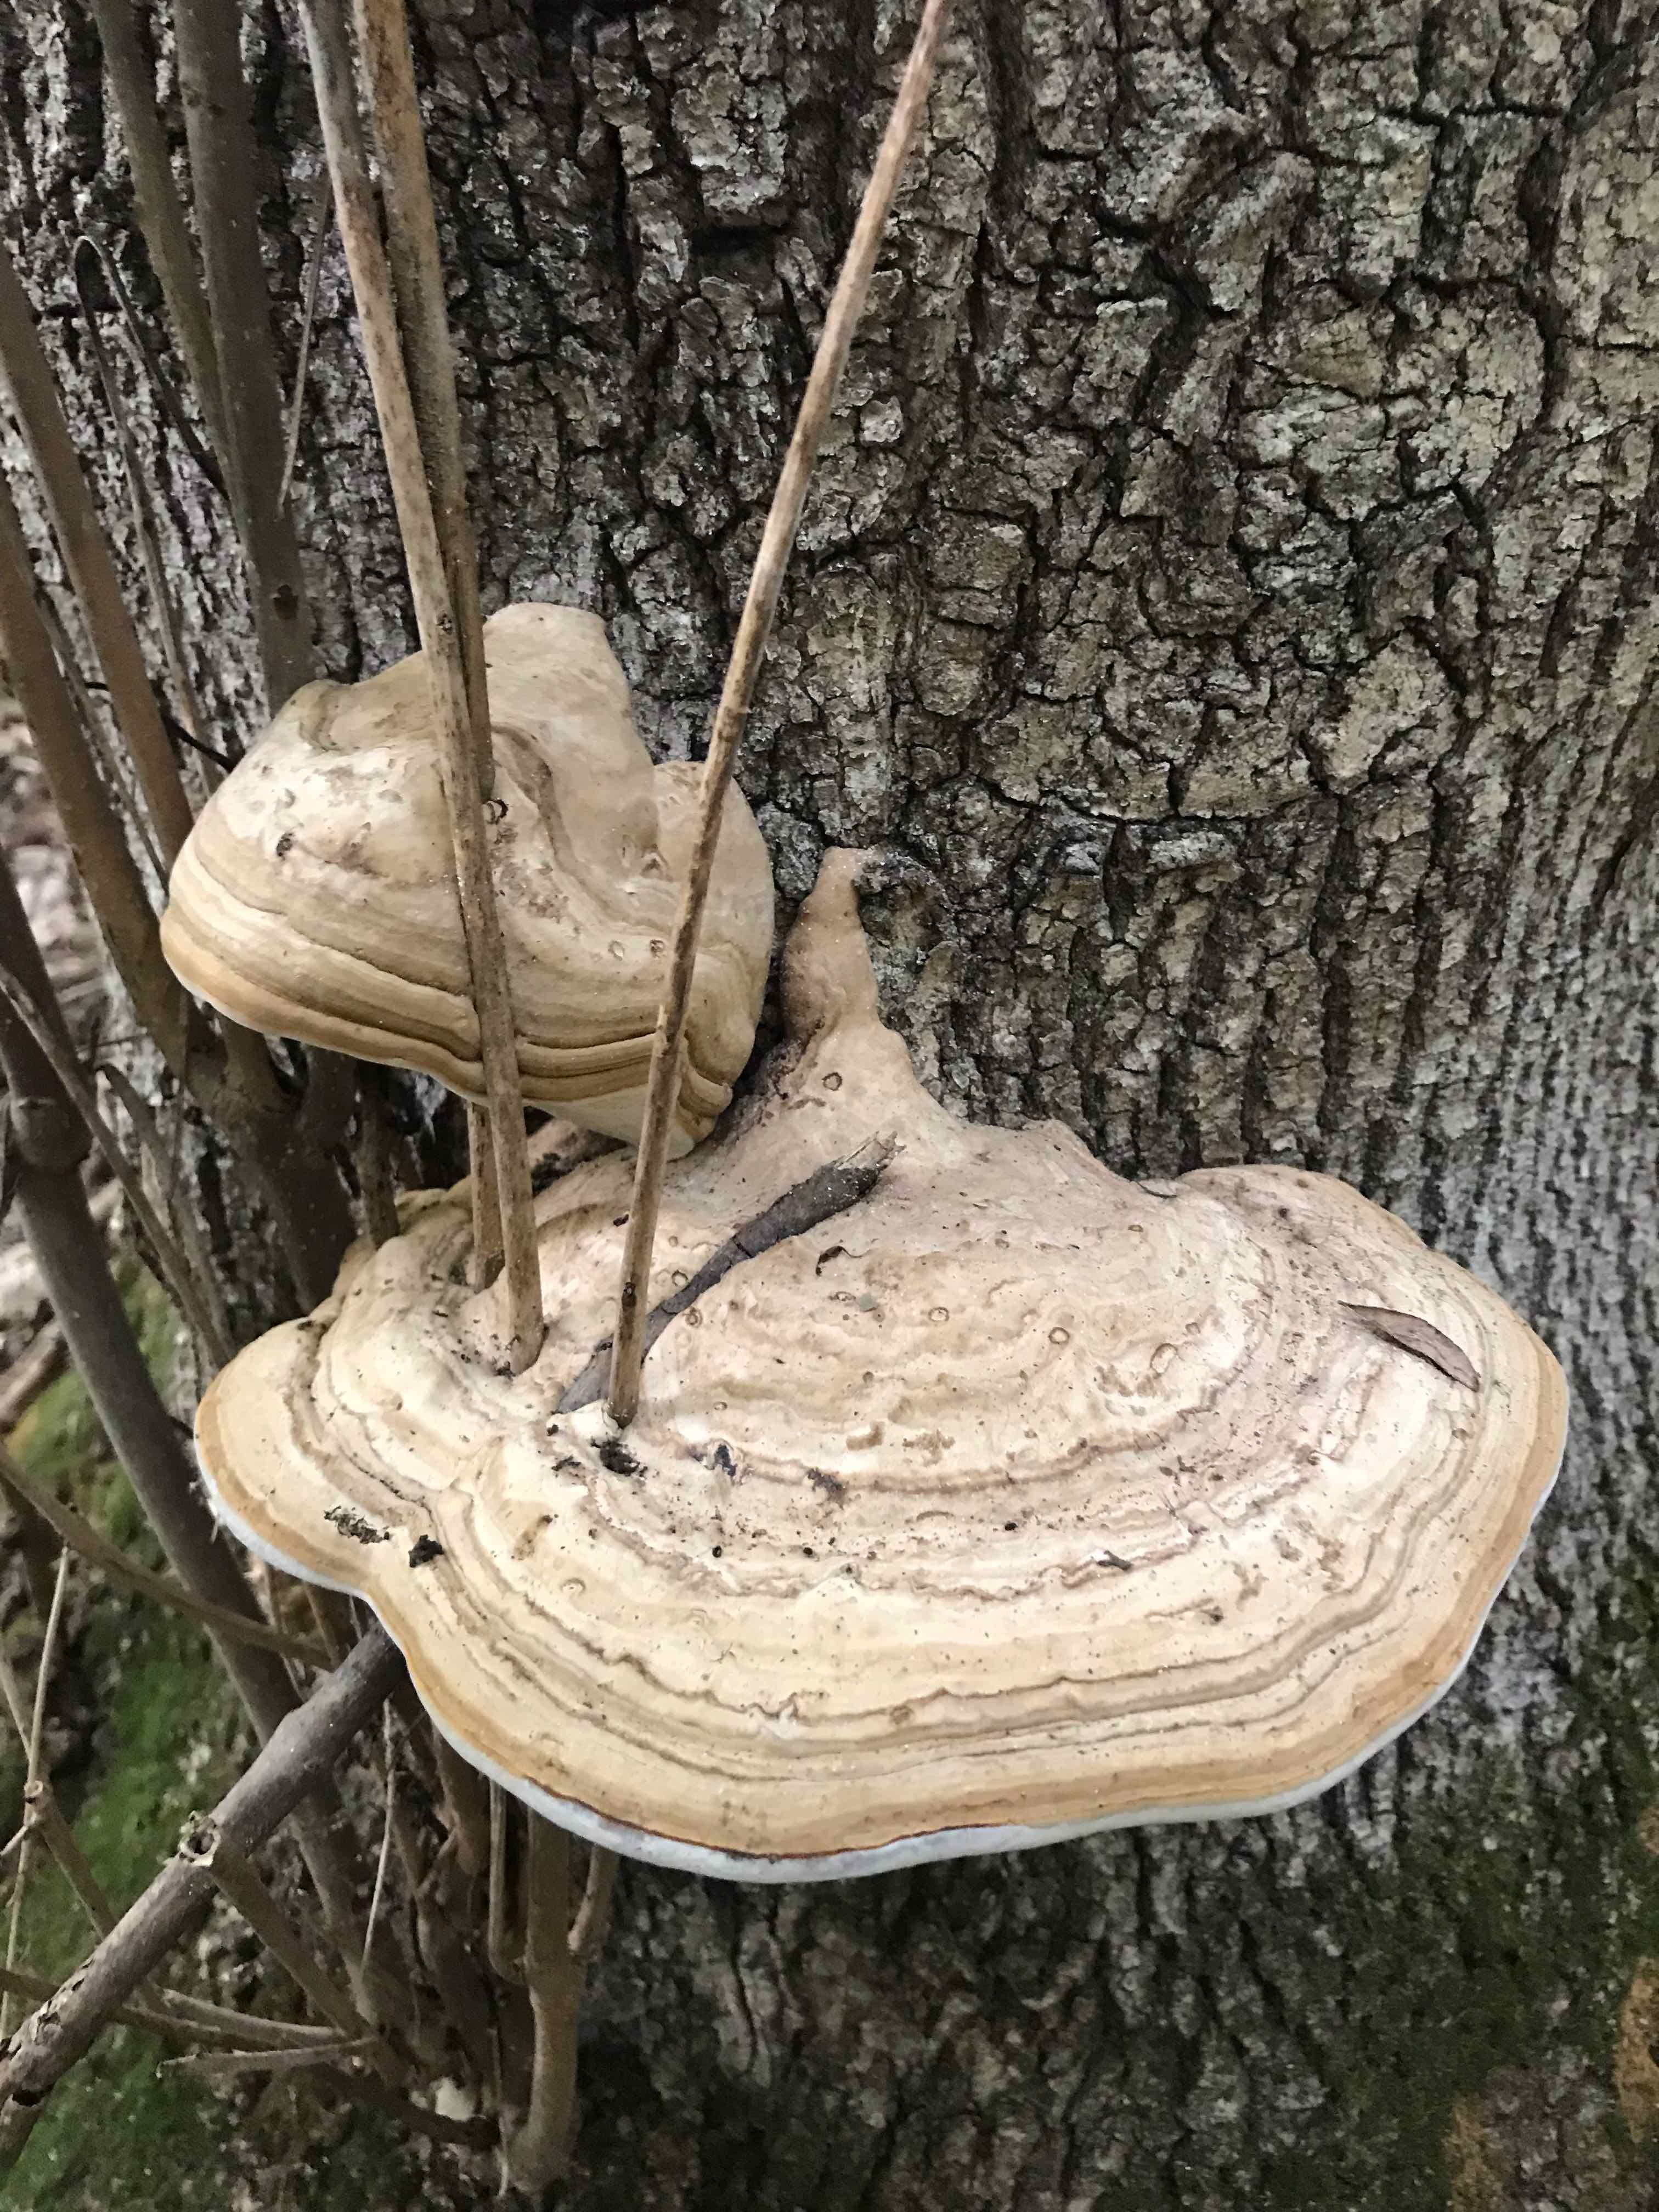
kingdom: Fungi
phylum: Basidiomycota
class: Agaricomycetes
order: Polyporales
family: Polyporaceae
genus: Fomes
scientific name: Fomes fomentarius
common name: tøndersvamp
